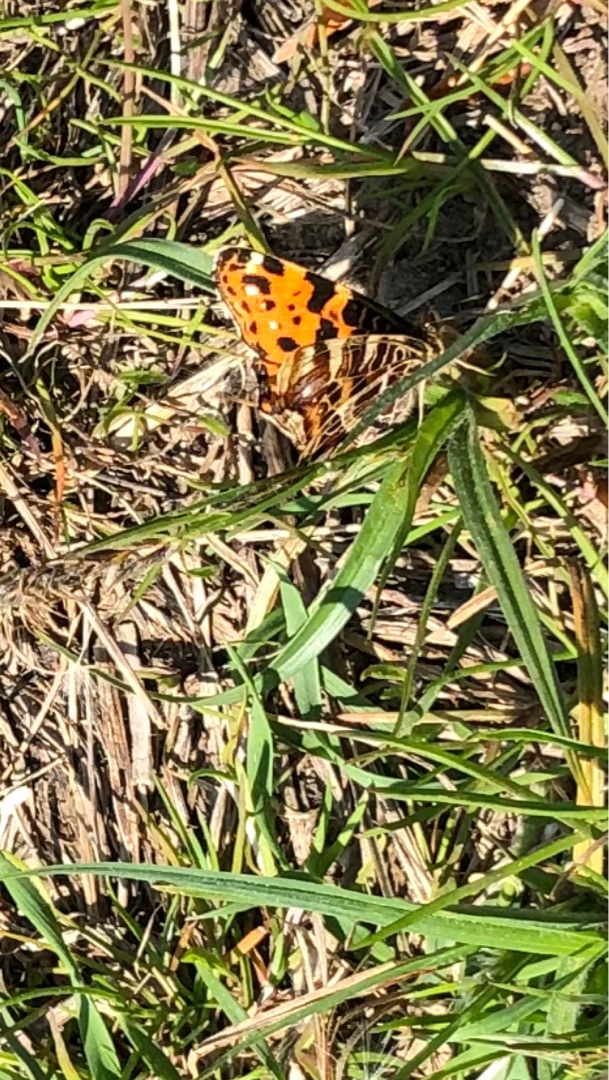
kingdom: Animalia
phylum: Arthropoda
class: Insecta
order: Lepidoptera
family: Nymphalidae
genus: Araschnia
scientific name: Araschnia levana
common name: Nældesommerfugl
